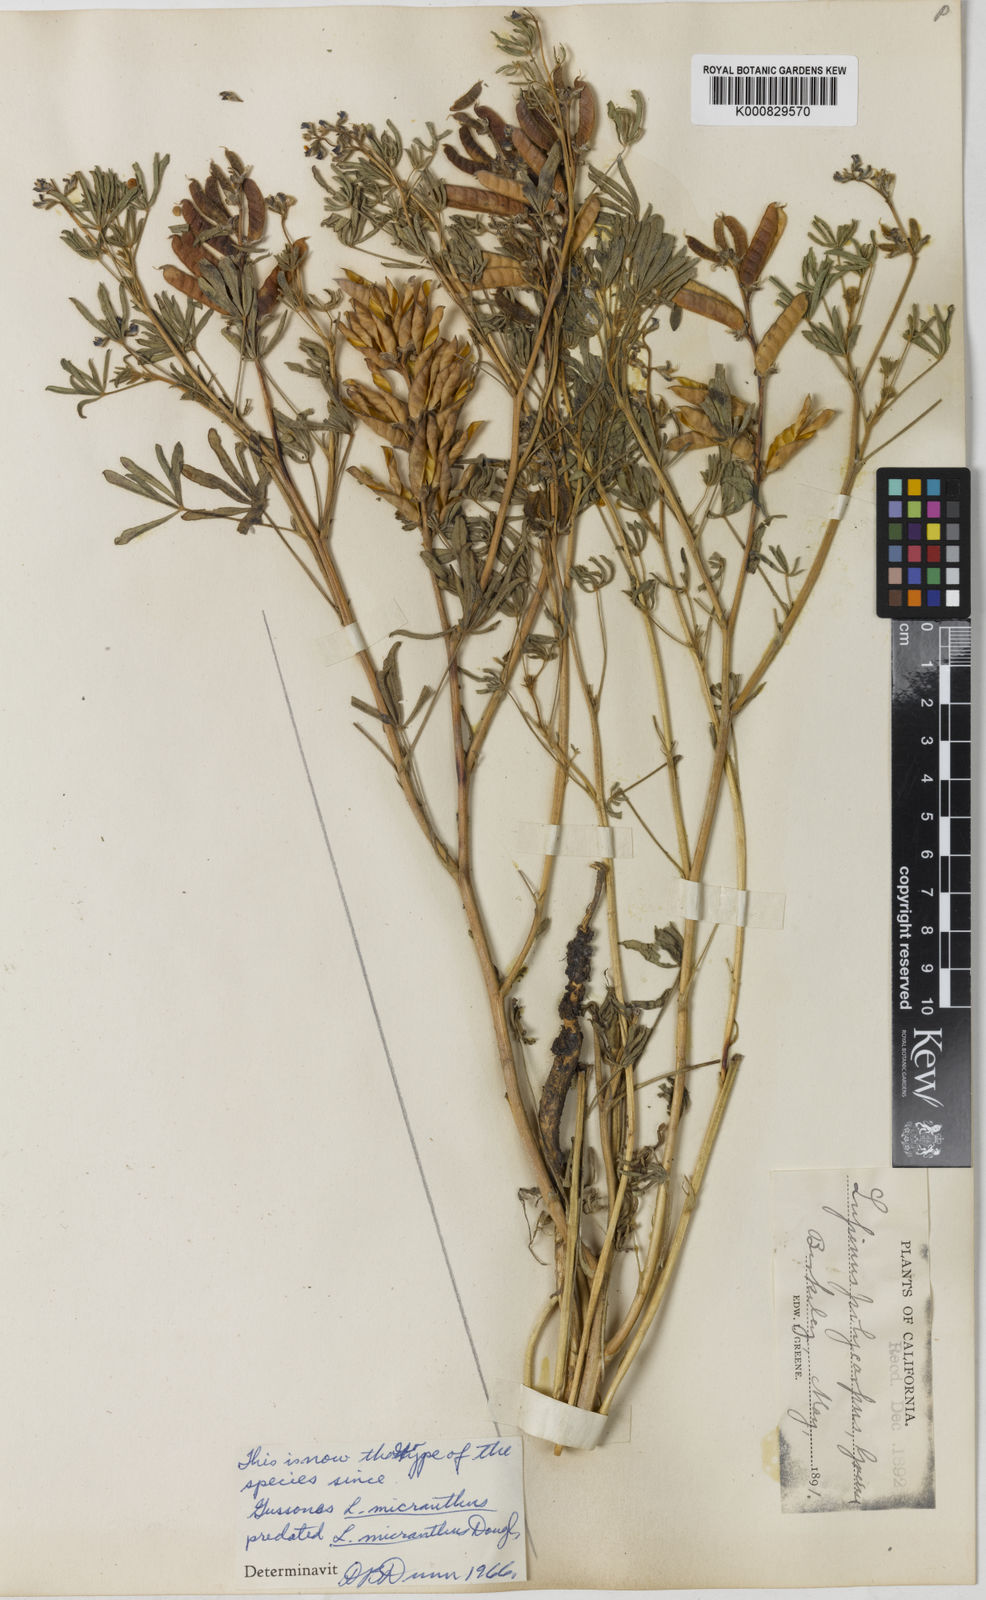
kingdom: Plantae
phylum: Tracheophyta
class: Magnoliopsida
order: Fabales
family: Fabaceae
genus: Lupinus
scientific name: Lupinus polycarpus
